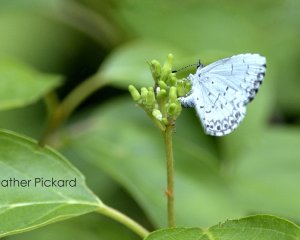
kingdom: Animalia
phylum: Arthropoda
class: Insecta
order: Lepidoptera
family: Lycaenidae
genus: Cyaniris
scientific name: Cyaniris neglecta
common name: Summer Azure
